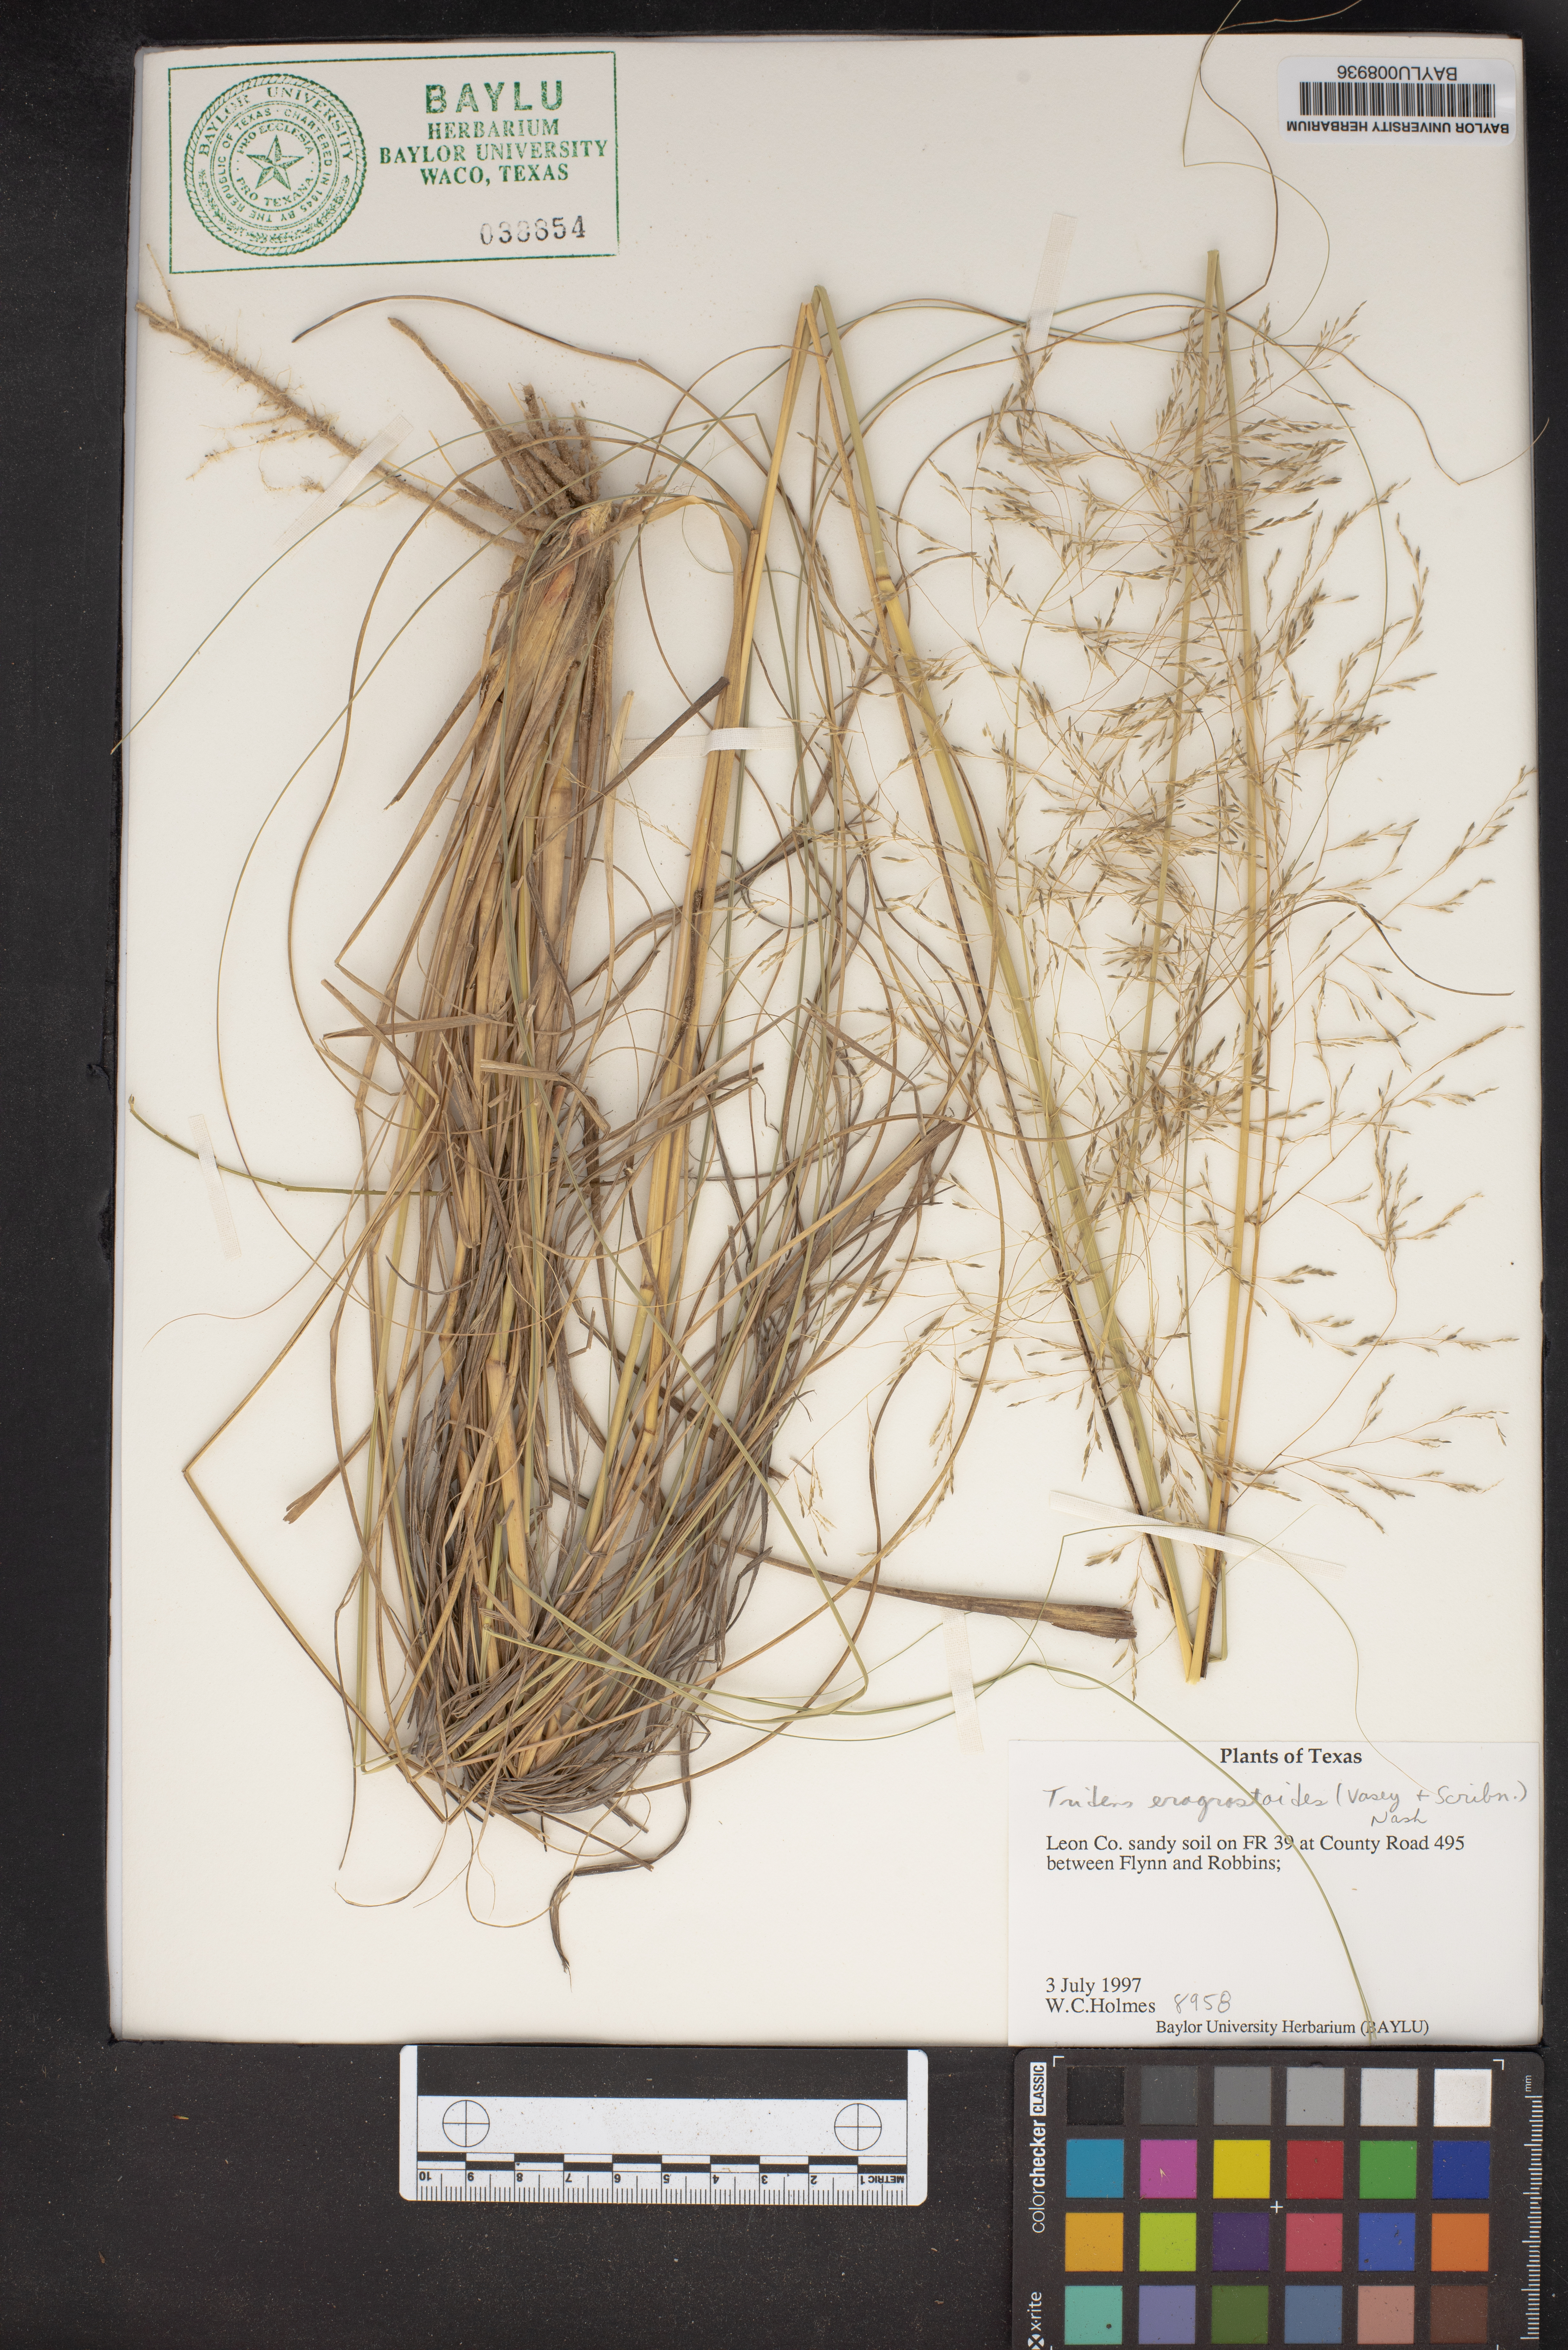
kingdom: Plantae
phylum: Tracheophyta
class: Liliopsida
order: Poales
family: Poaceae
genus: Triplasiella
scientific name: Triplasiella eragrostoides
